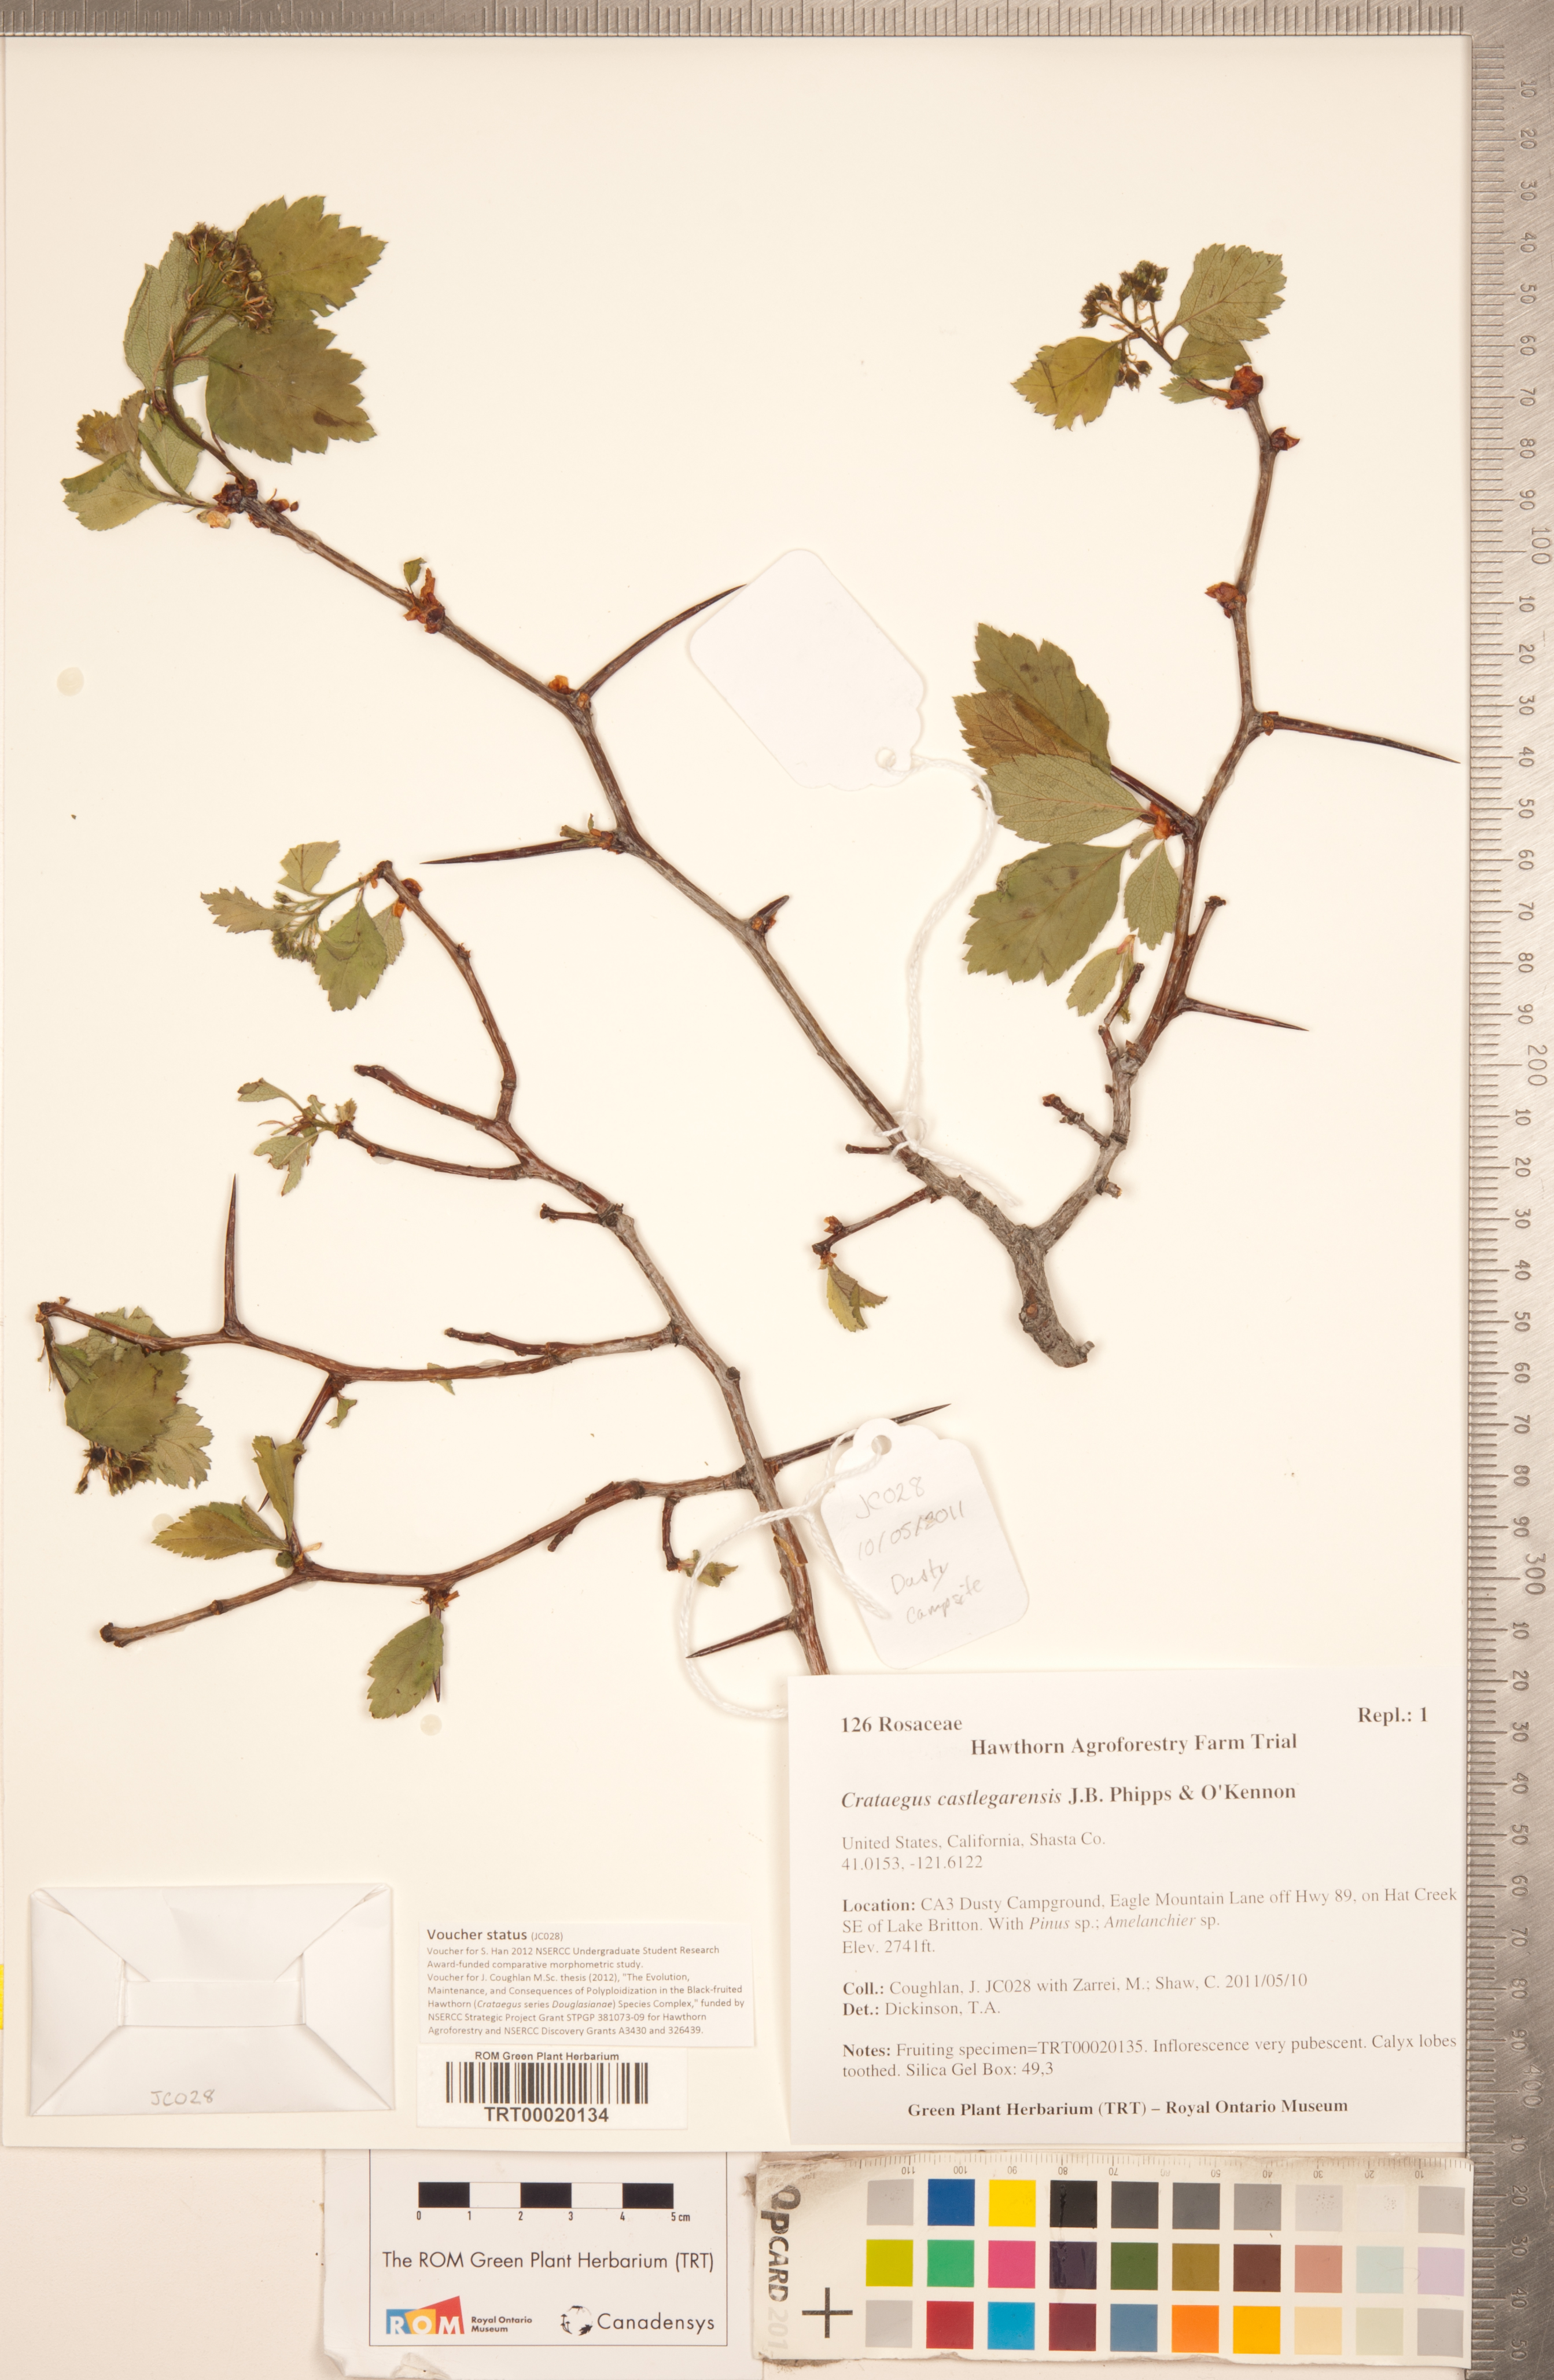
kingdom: Plantae
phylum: Tracheophyta
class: Magnoliopsida
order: Rosales
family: Rosaceae
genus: Crataegus
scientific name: Crataegus castlegarensis
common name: Castlegar hawthorn
